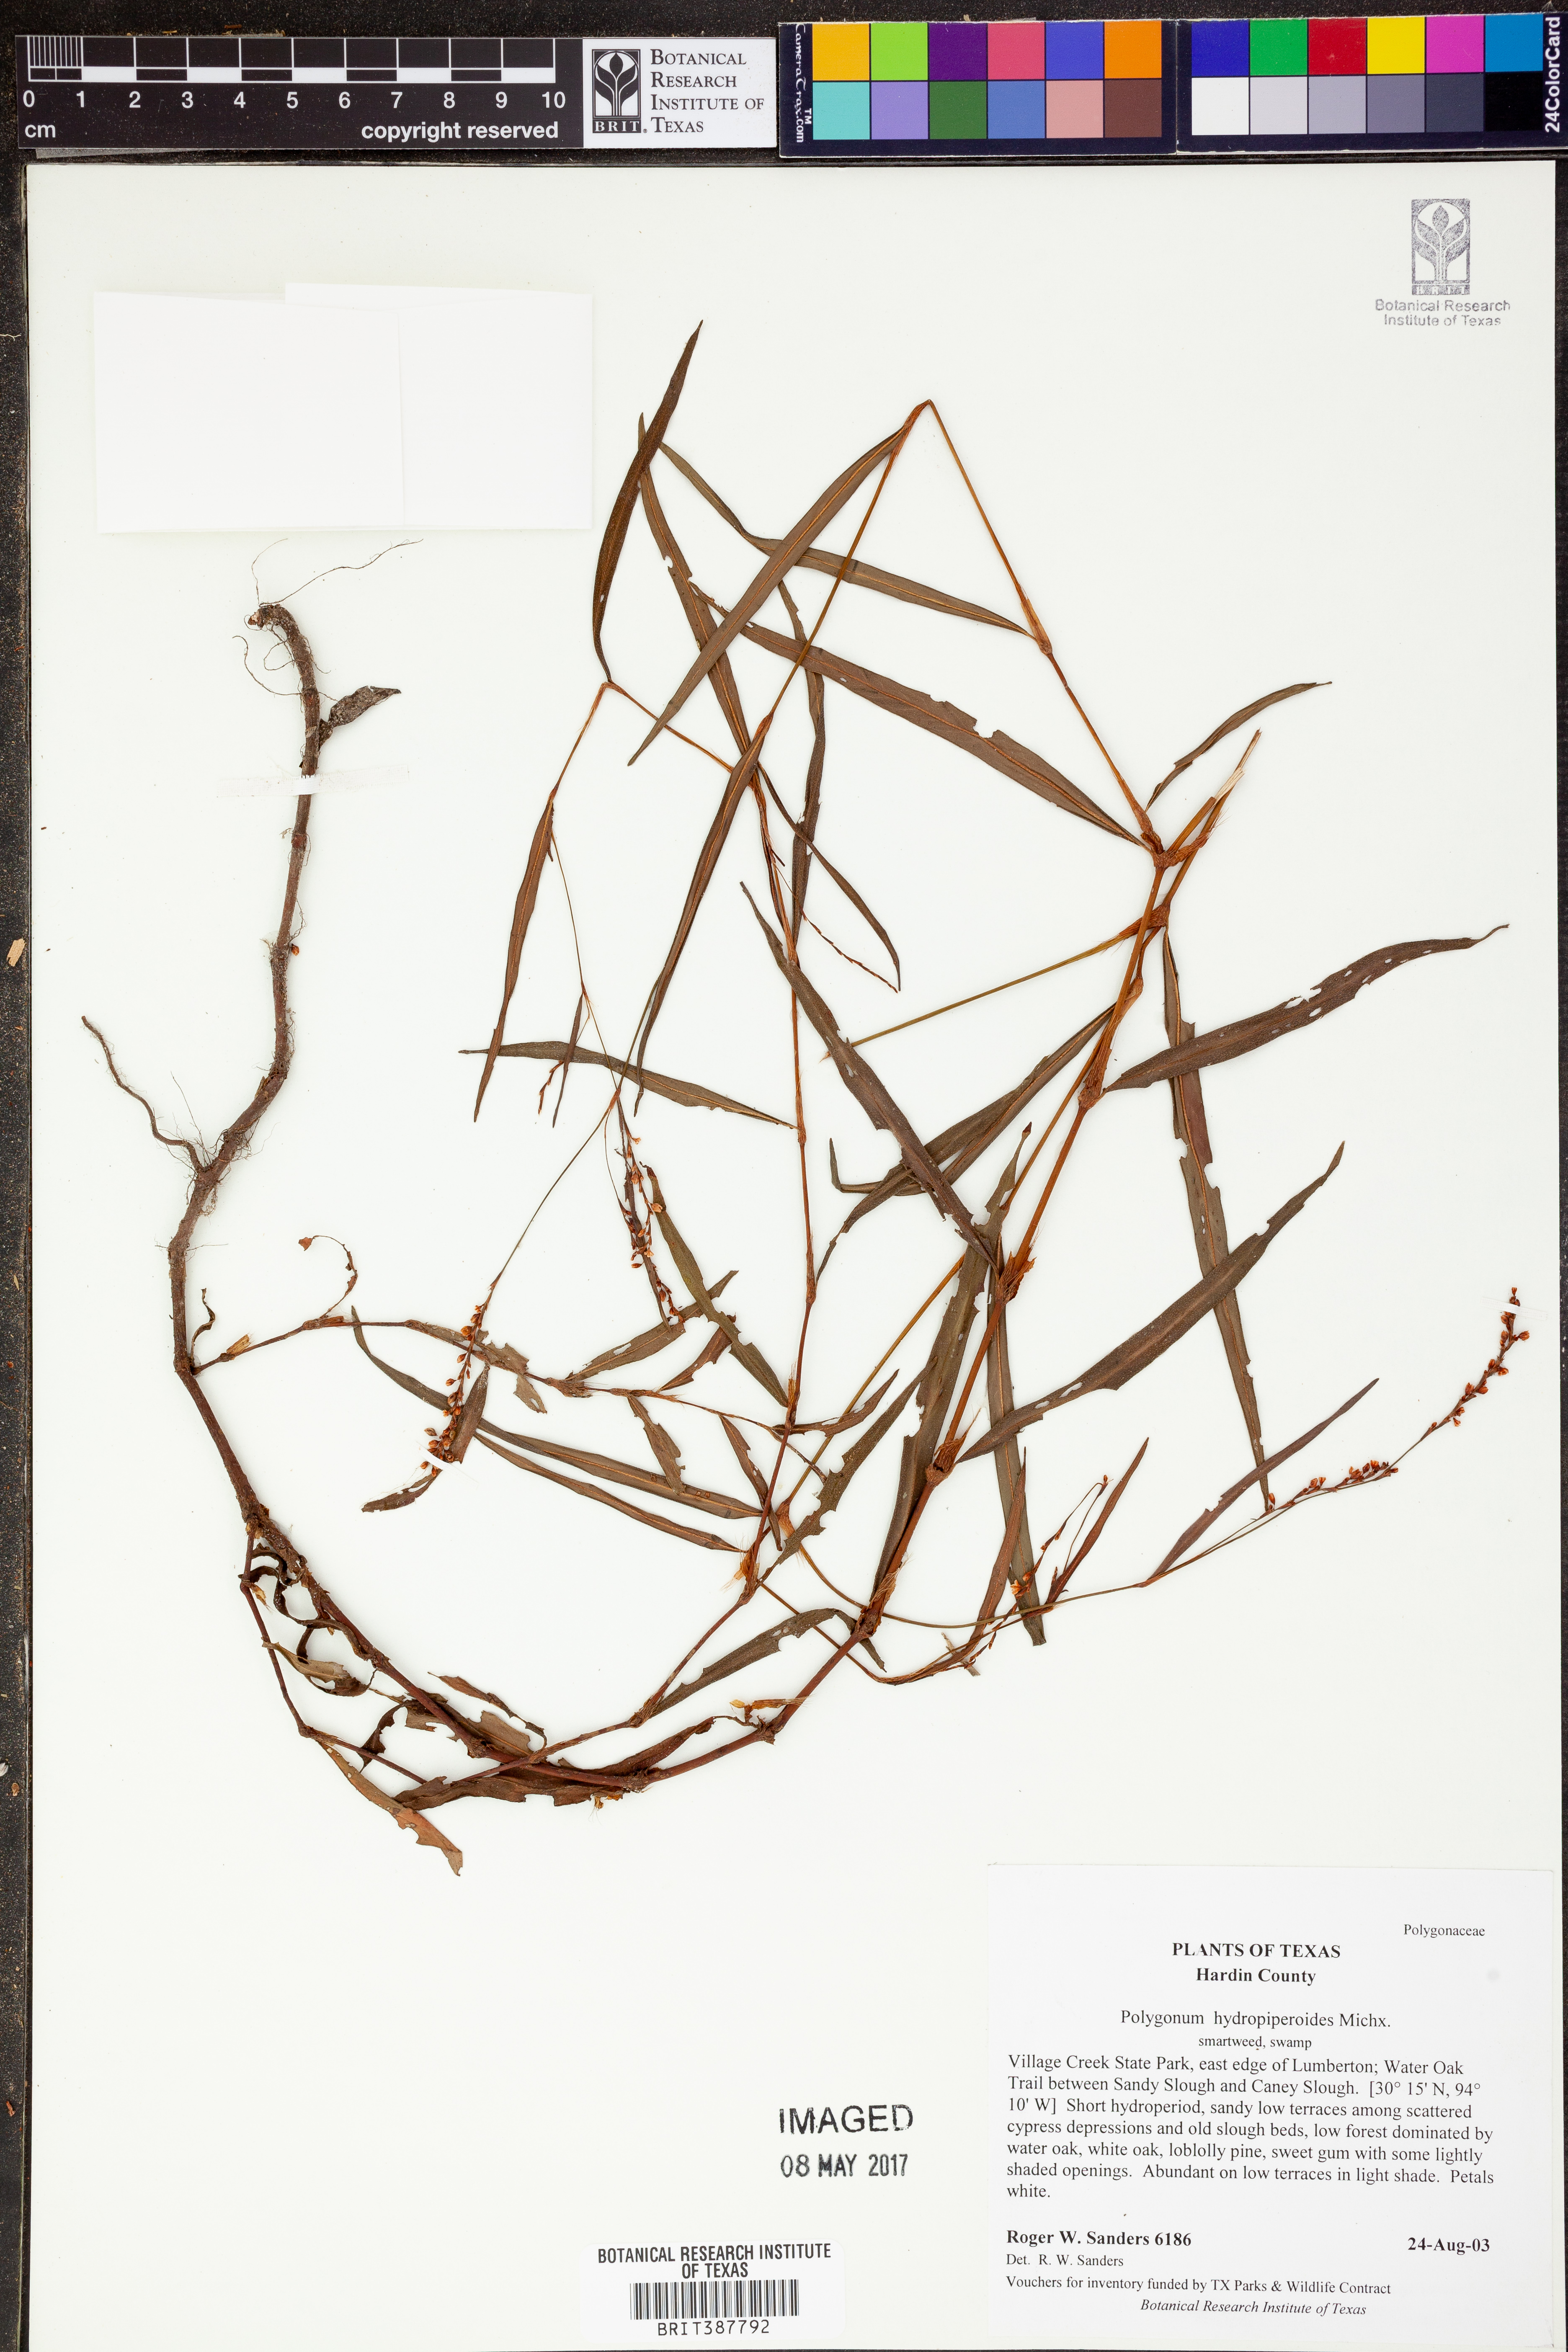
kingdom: Plantae
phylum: Tracheophyta
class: Magnoliopsida
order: Caryophyllales
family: Polygonaceae
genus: Persicaria
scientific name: Persicaria hydropiperoides
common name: Swamp smartweed
